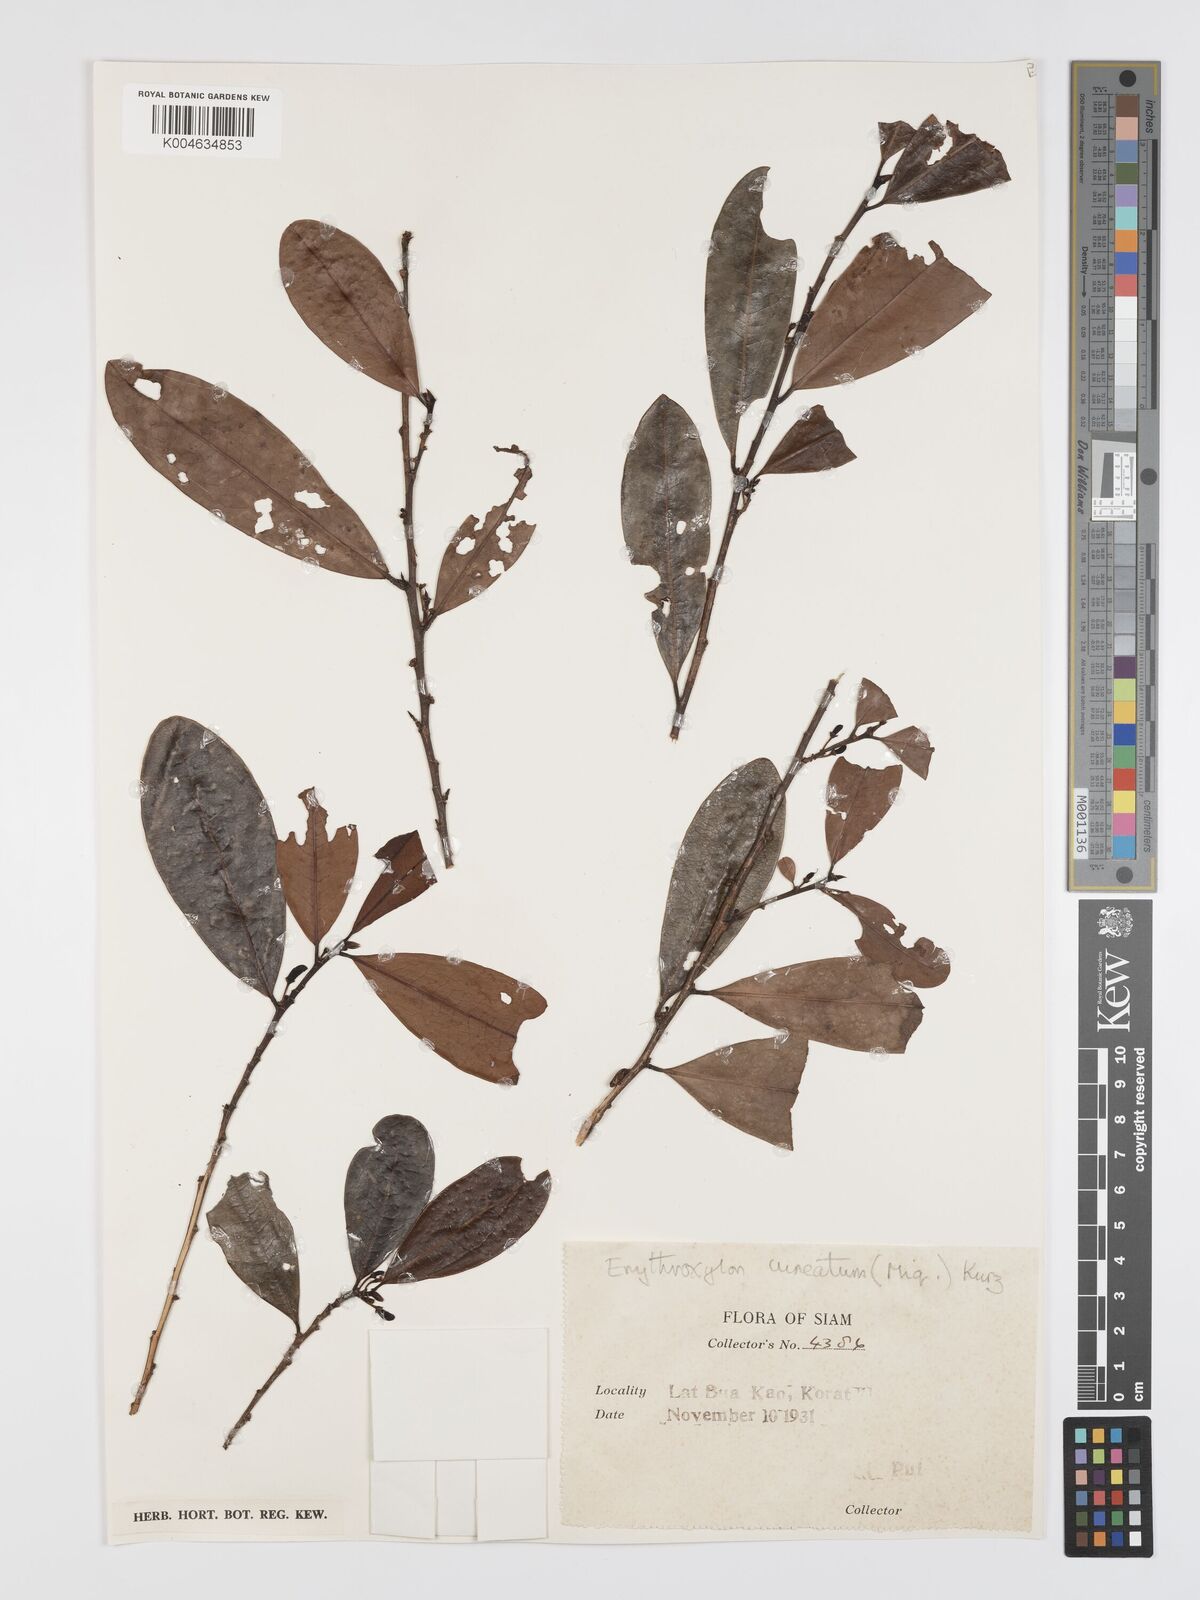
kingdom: Plantae
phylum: Tracheophyta
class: Magnoliopsida
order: Malpighiales
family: Erythroxylaceae
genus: Erythroxylum
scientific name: Erythroxylum cuneatum
